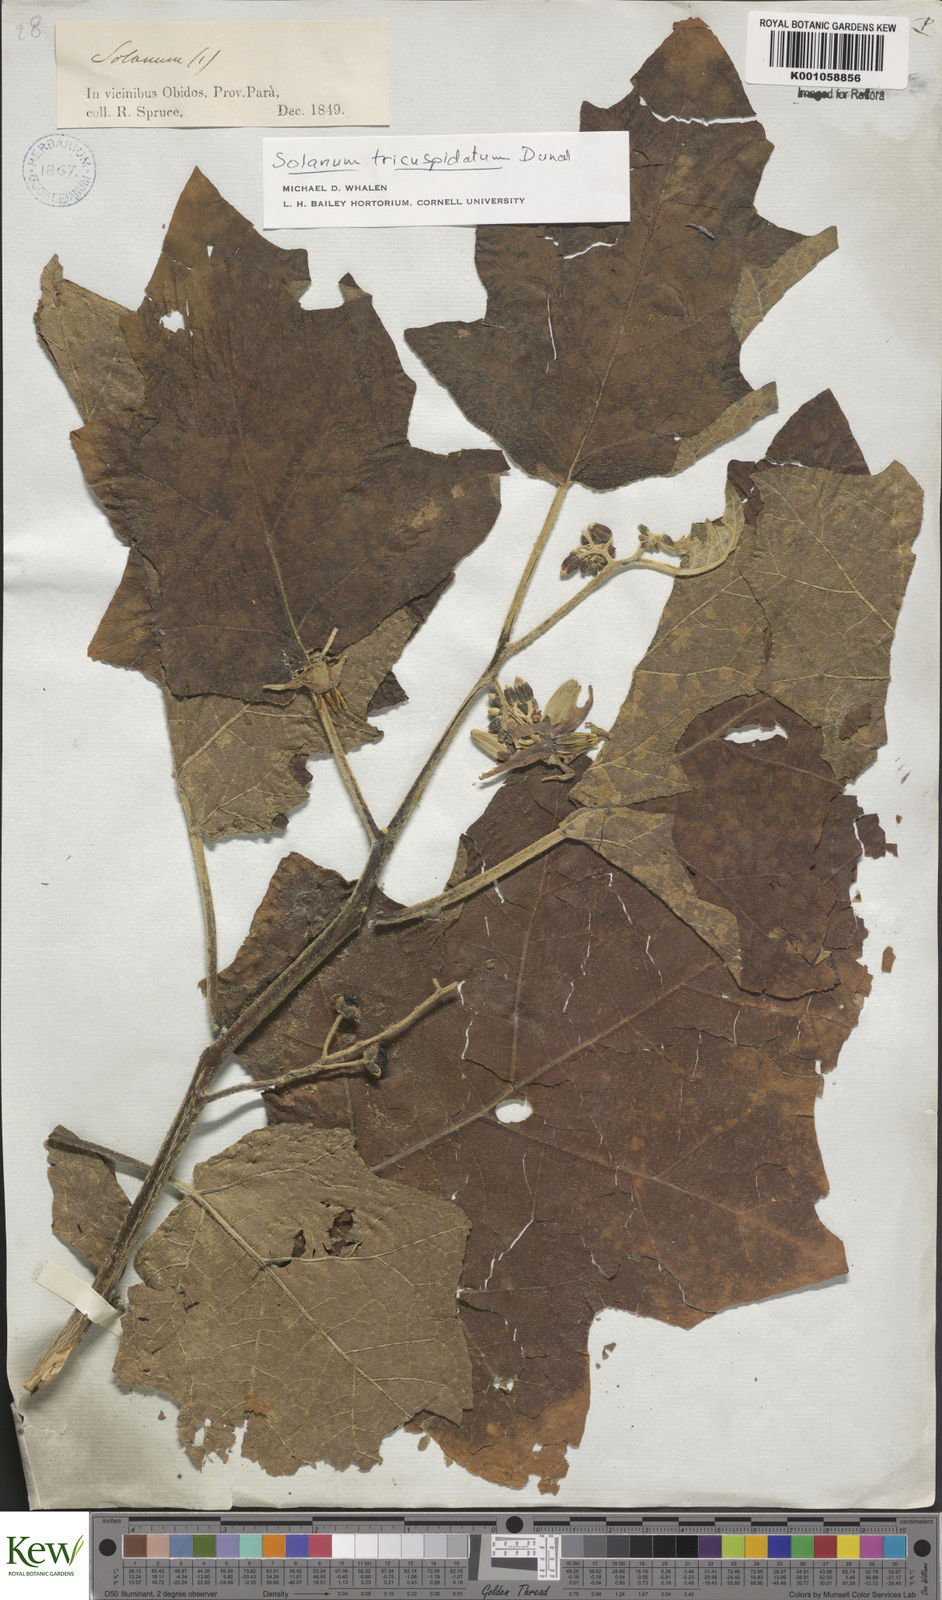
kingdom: Plantae
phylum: Tracheophyta
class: Magnoliopsida
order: Solanales
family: Solanaceae
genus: Solanum
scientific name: Solanum tricuspidatum
